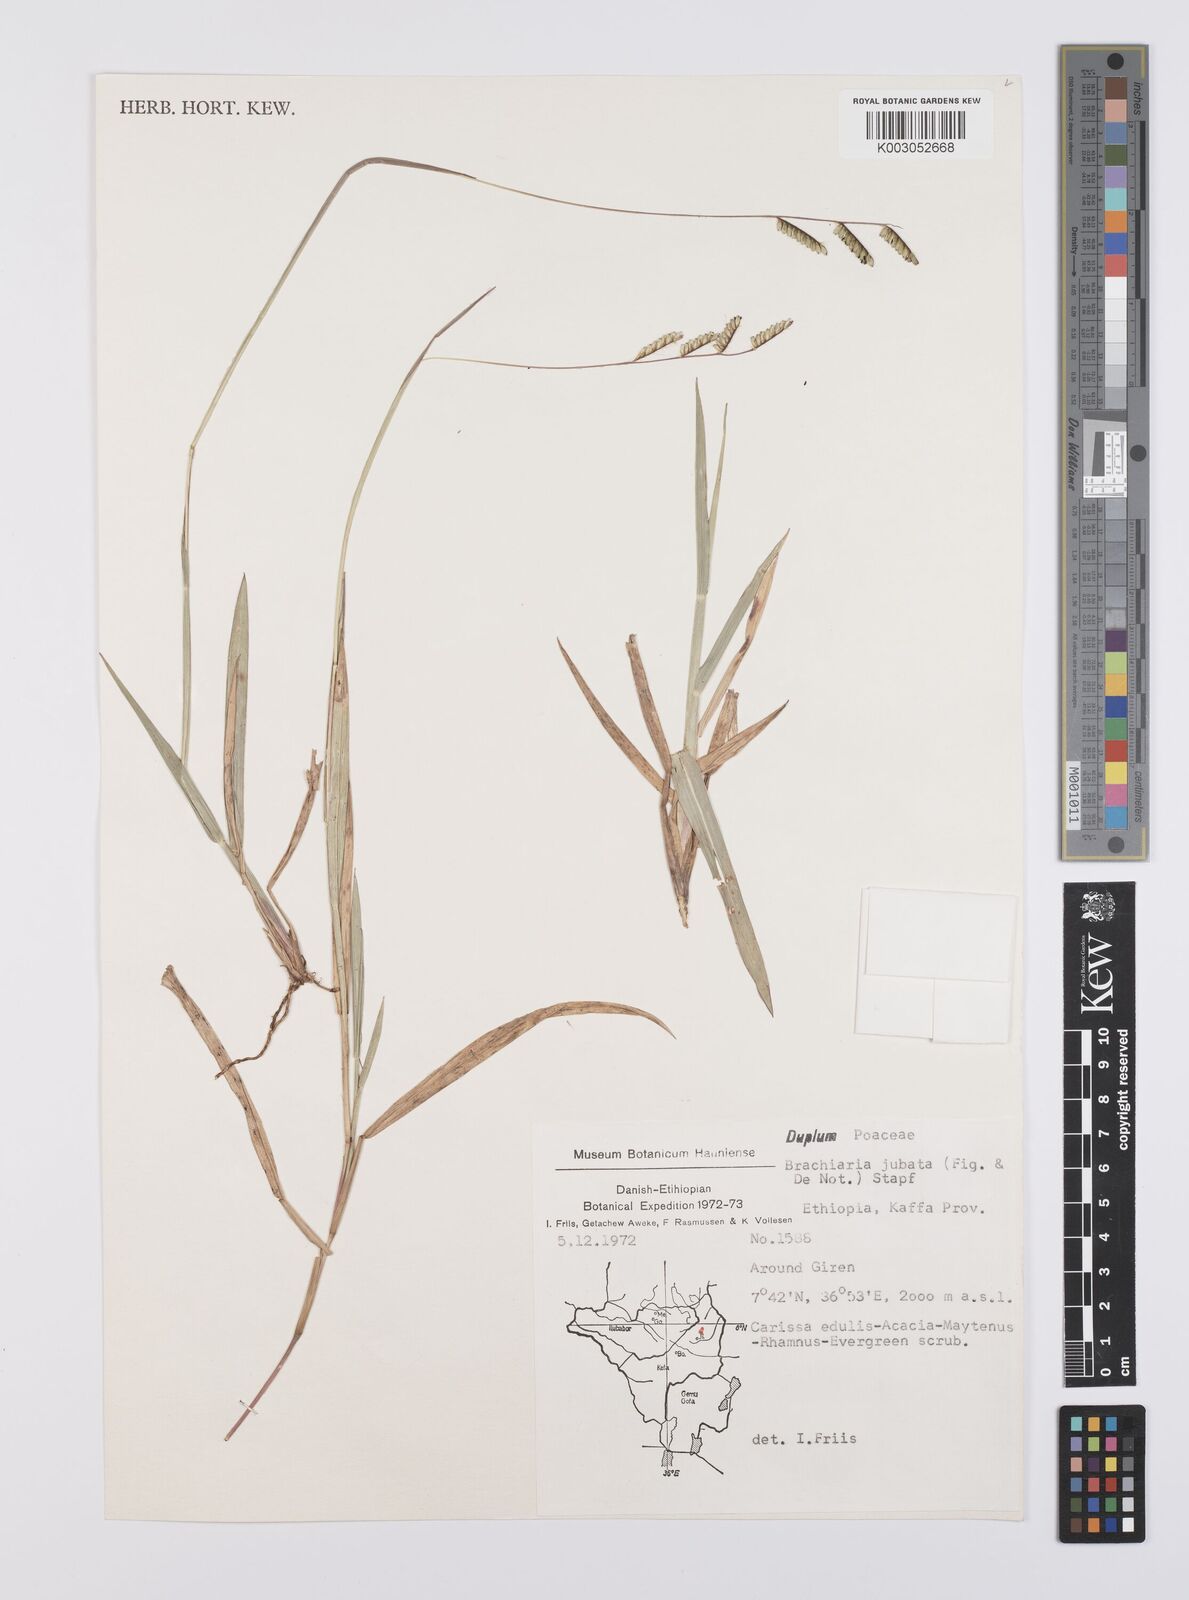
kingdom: Plantae
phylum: Tracheophyta
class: Liliopsida
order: Poales
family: Poaceae
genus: Urochloa
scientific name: Urochloa jubata
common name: Buffalograss
